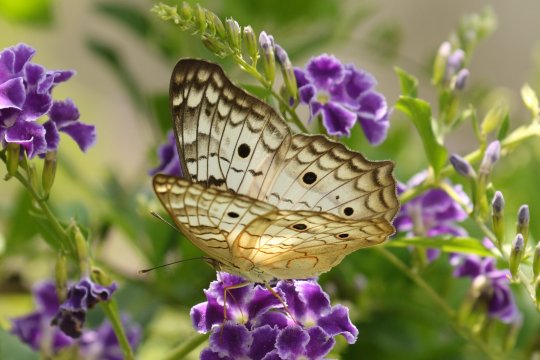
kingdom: Animalia
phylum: Arthropoda
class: Insecta
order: Lepidoptera
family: Nymphalidae
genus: Anartia
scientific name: Anartia jatrophae
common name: White Peacock
